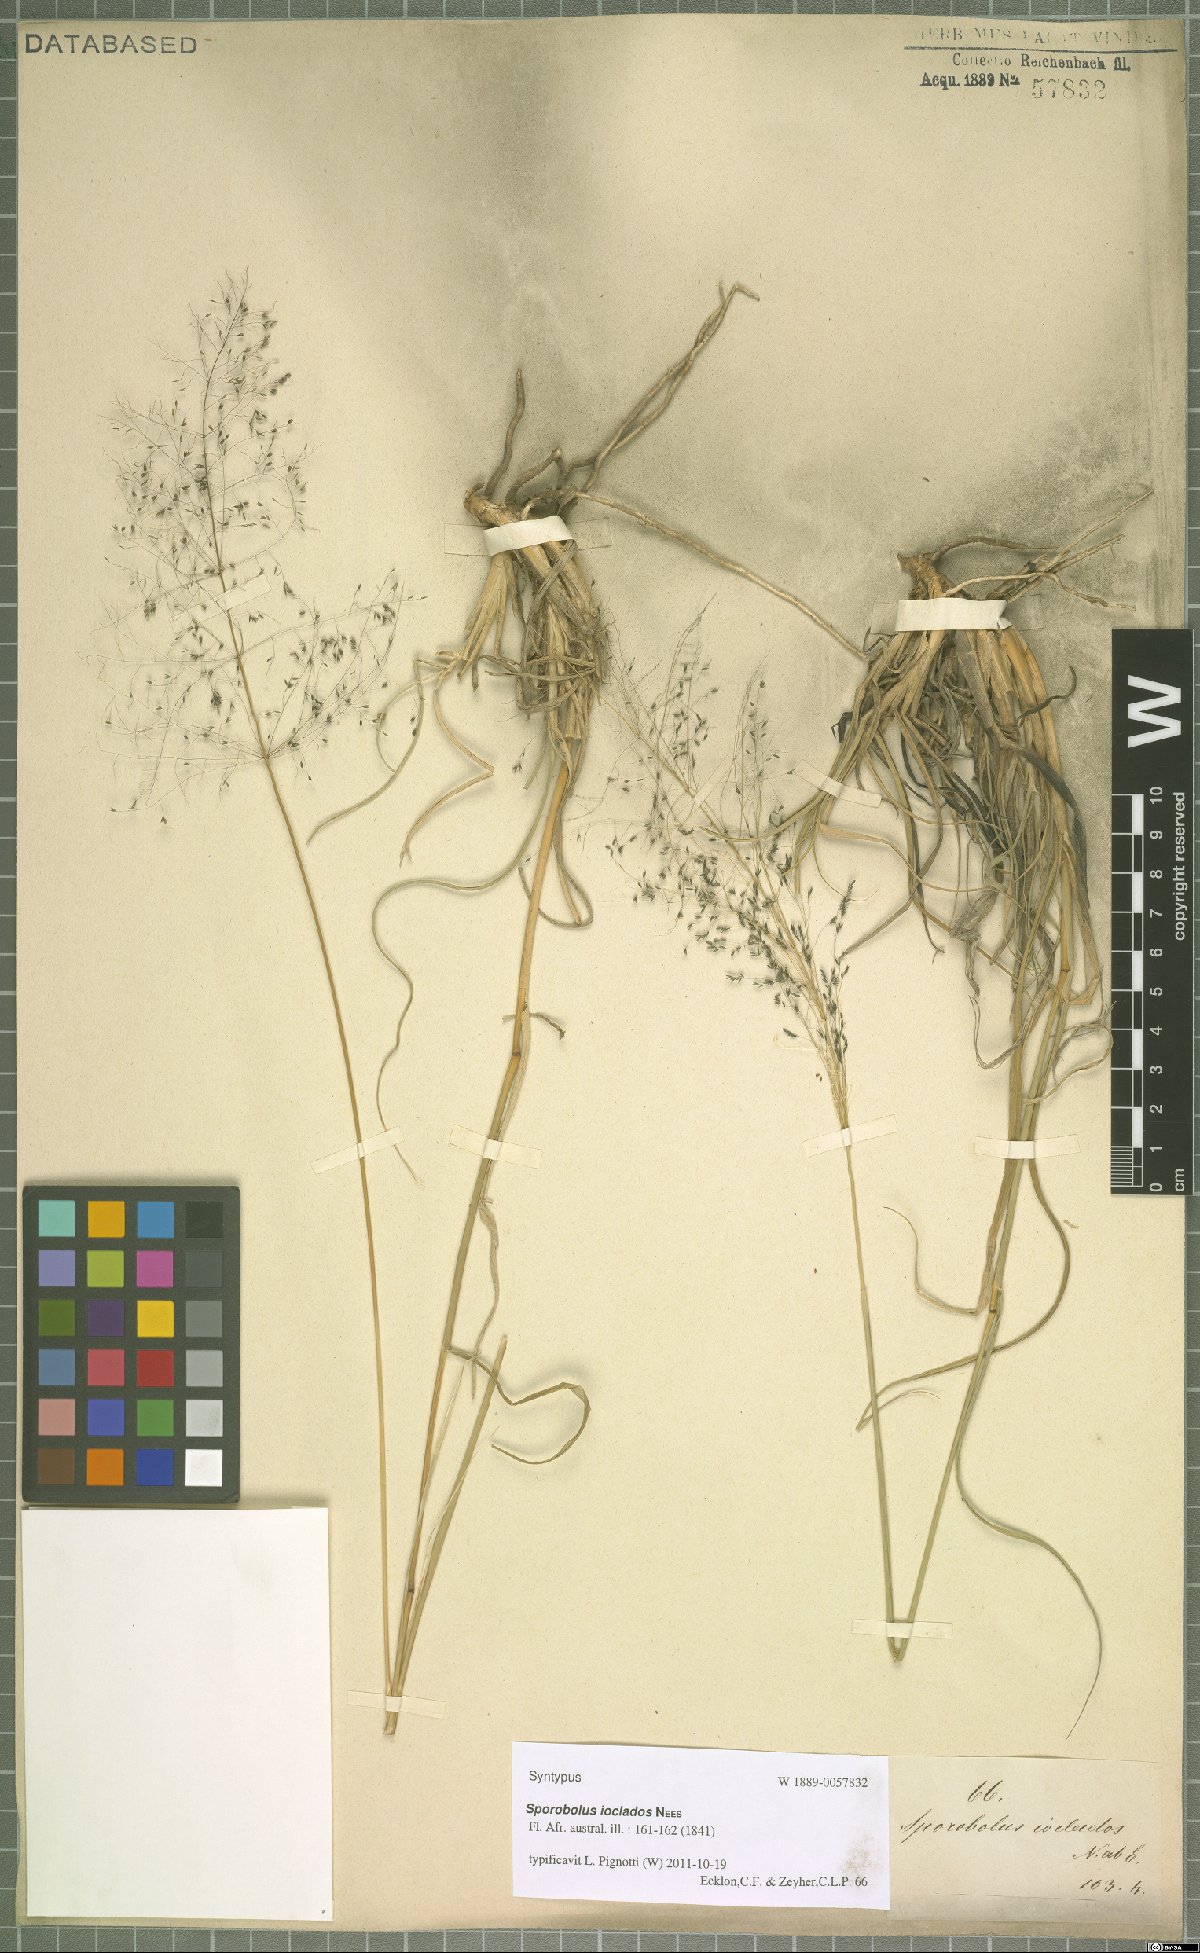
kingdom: Plantae
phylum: Tracheophyta
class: Liliopsida
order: Poales
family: Poaceae
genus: Sporobolus
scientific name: Sporobolus ioclados
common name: Pan dropseed
